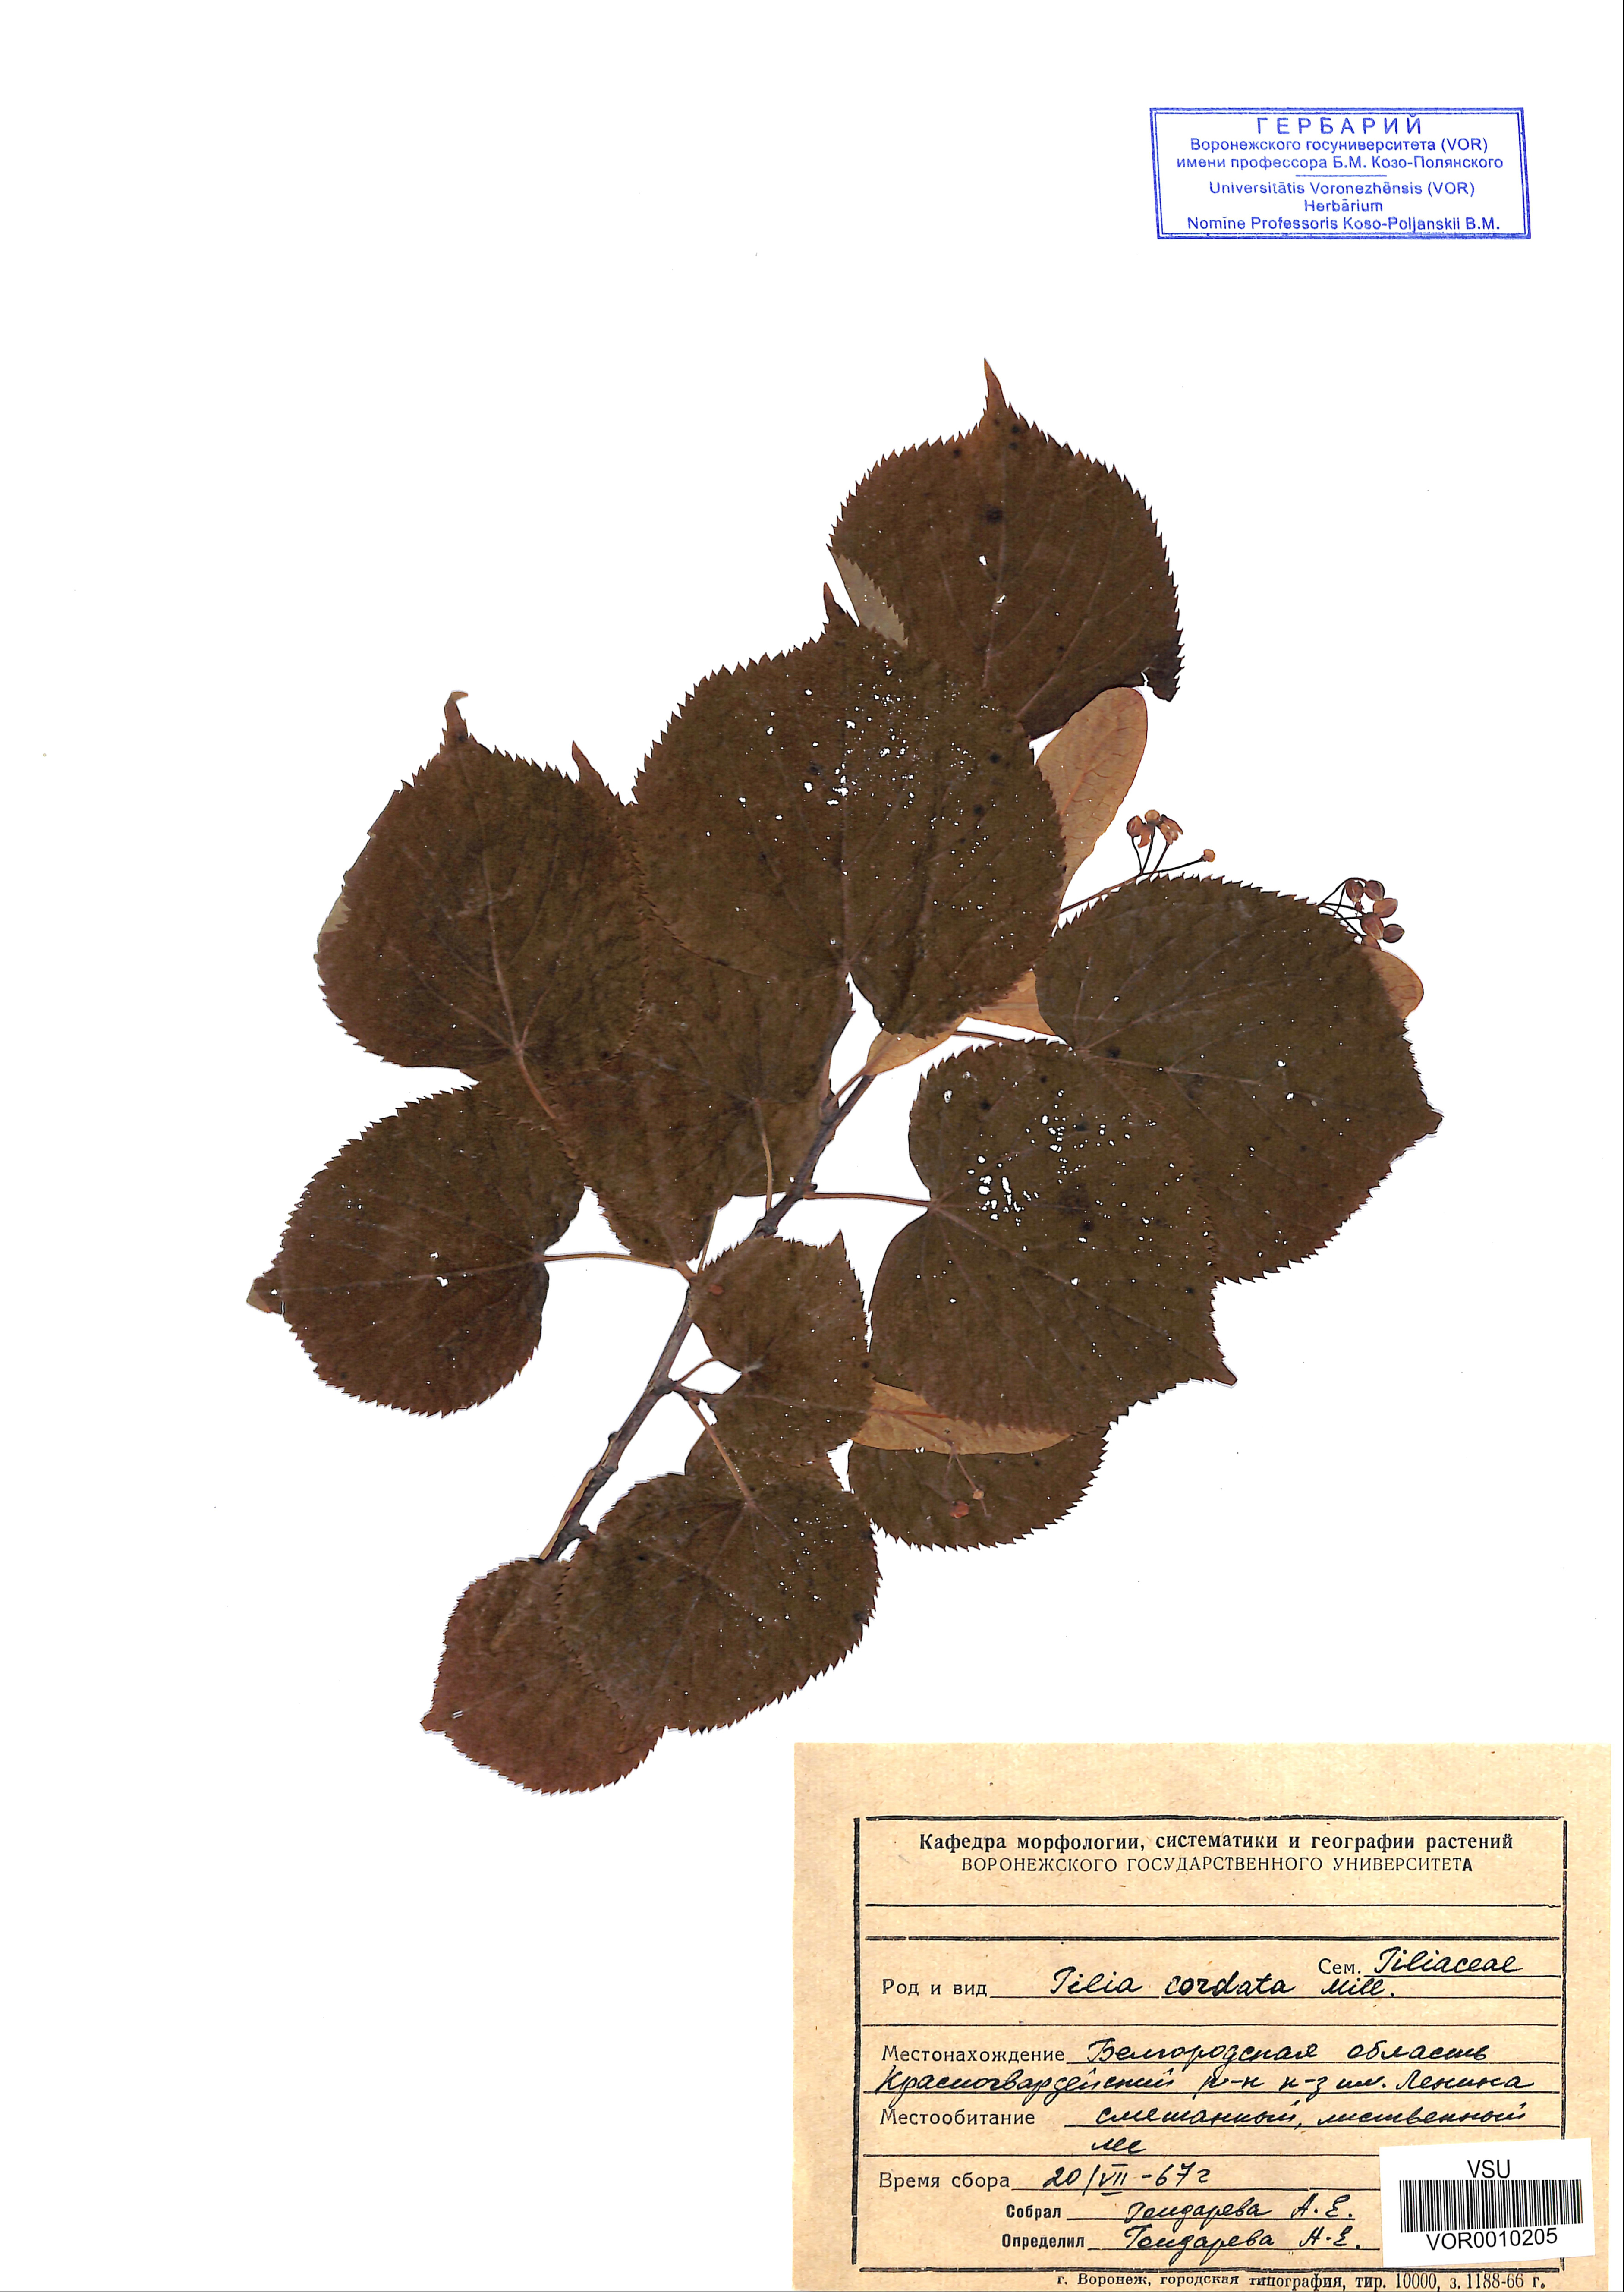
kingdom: Plantae
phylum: Tracheophyta
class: Magnoliopsida
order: Malvales
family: Malvaceae
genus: Tilia
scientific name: Tilia cordata
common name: Small-leaved lime
